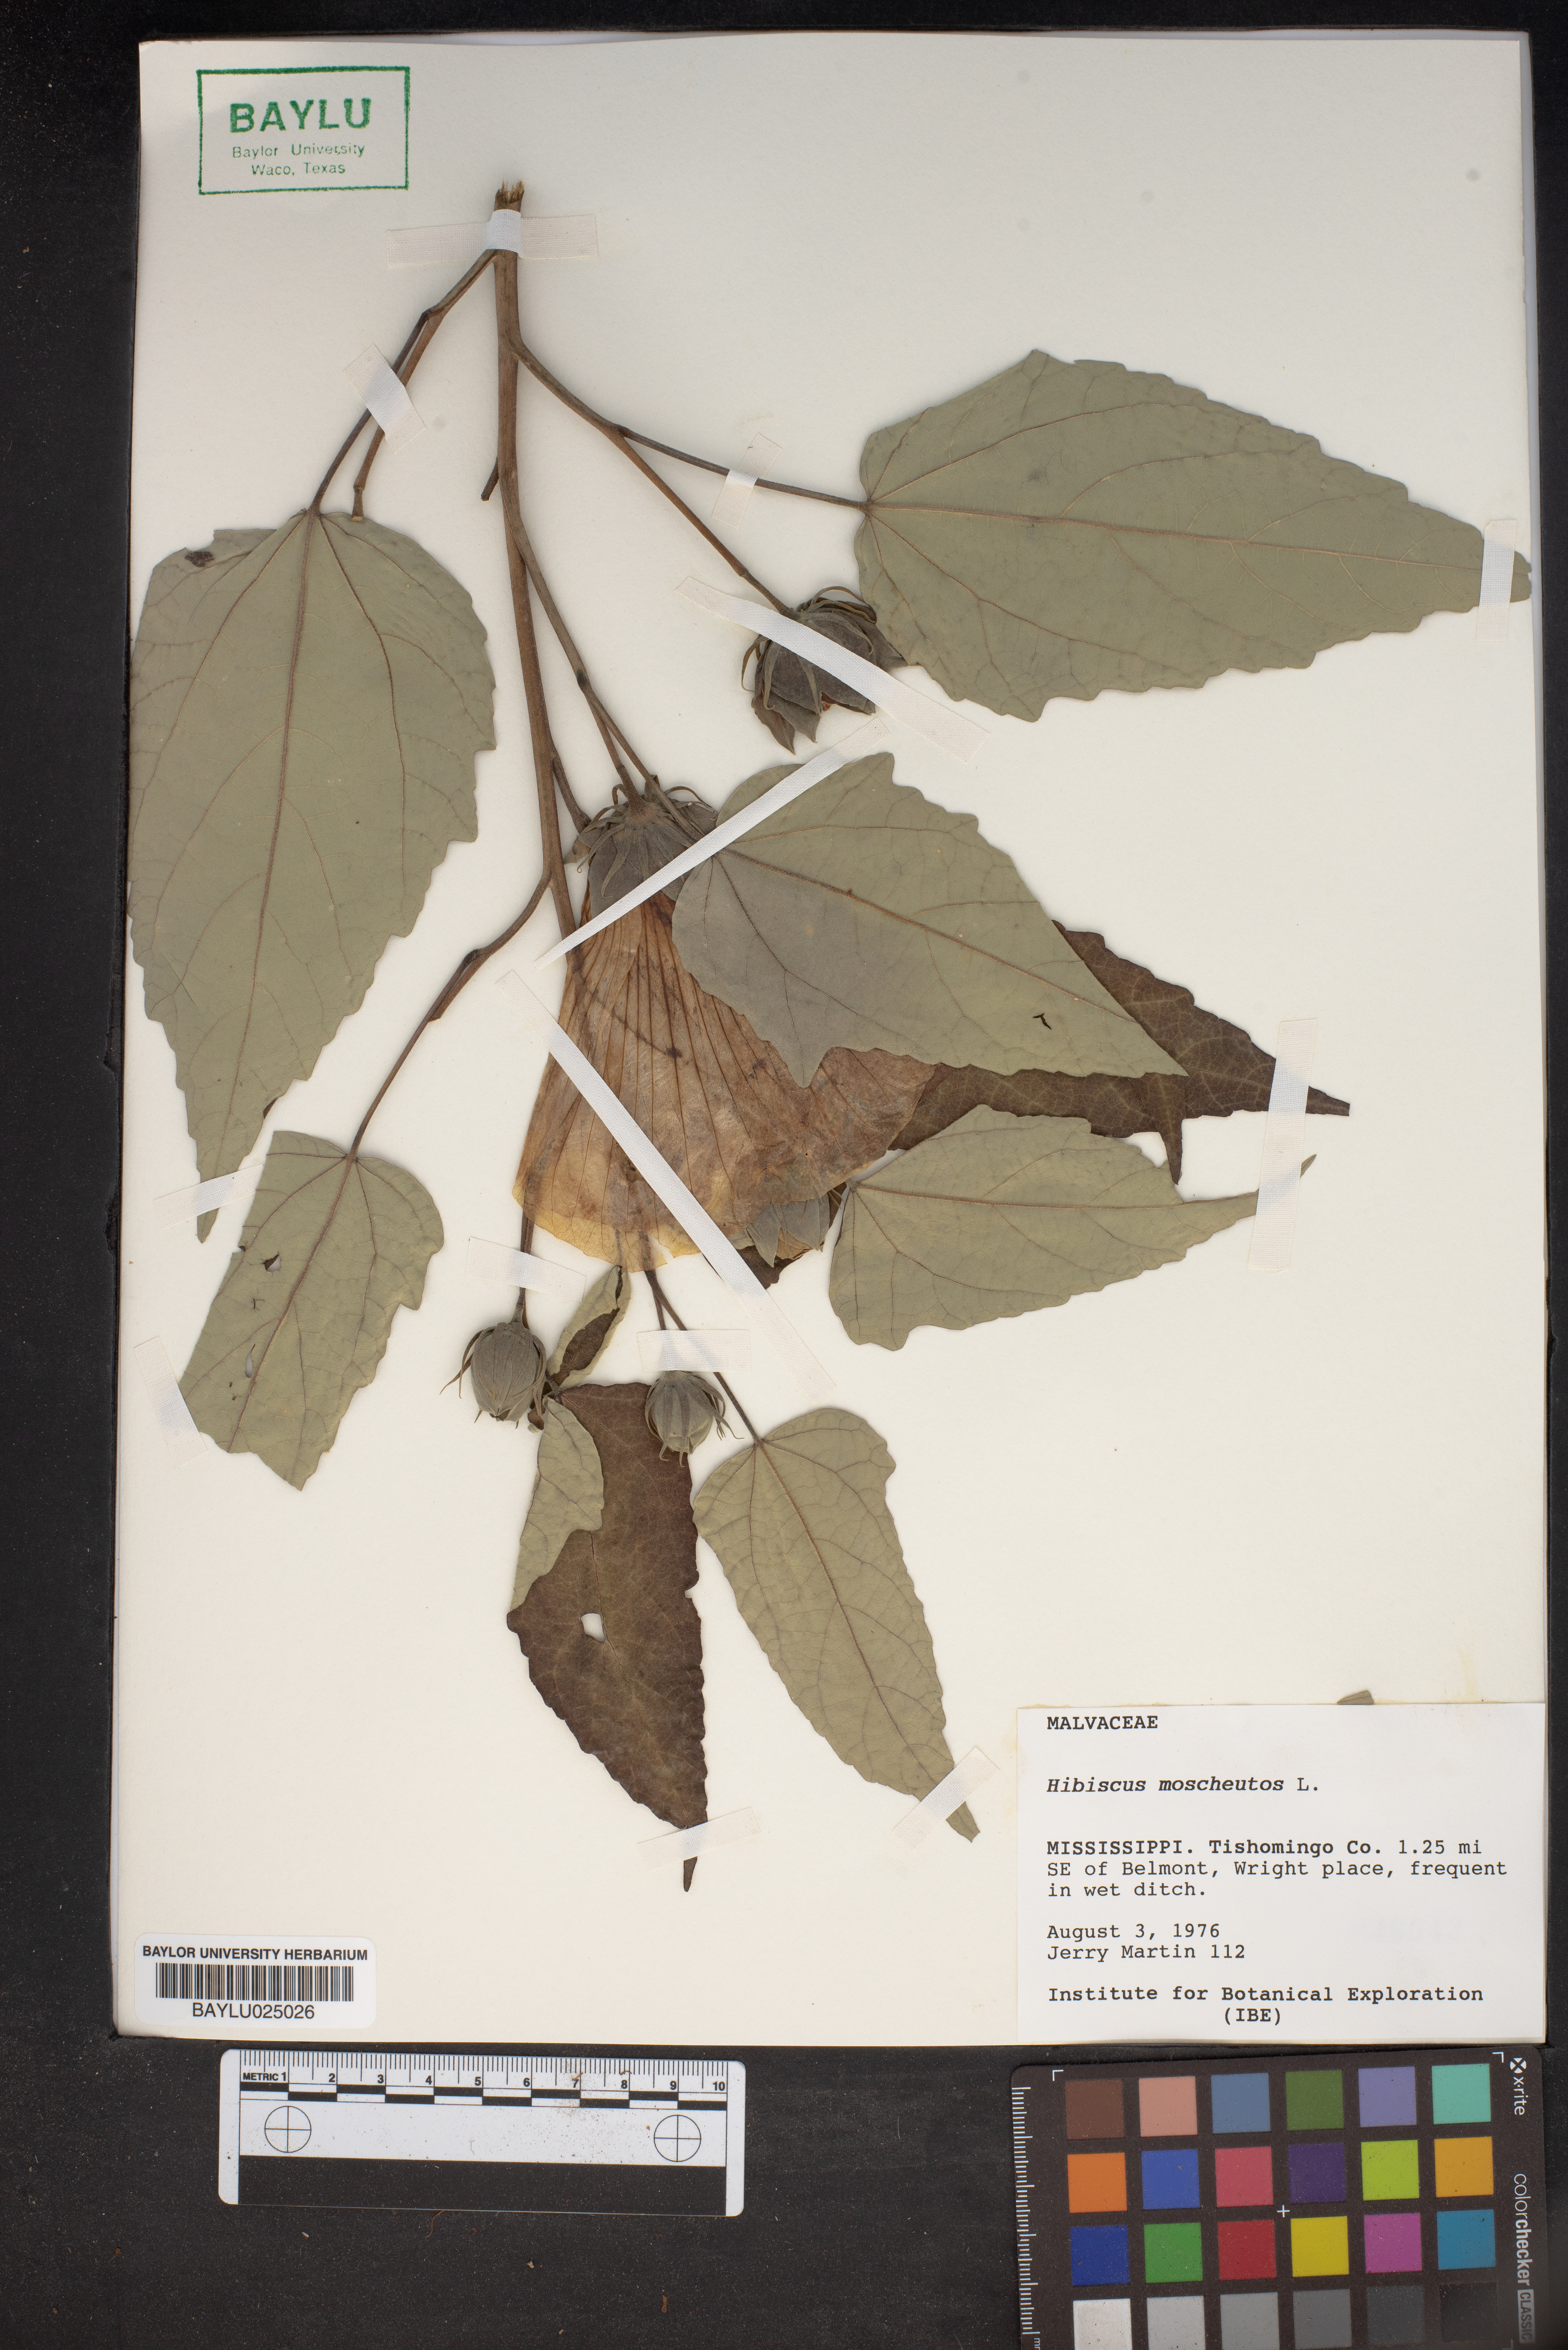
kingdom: Plantae
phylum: Tracheophyta
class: Magnoliopsida
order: Malvales
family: Malvaceae
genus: Hibiscus
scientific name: Hibiscus moscheutos
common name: Common rose-mallow
